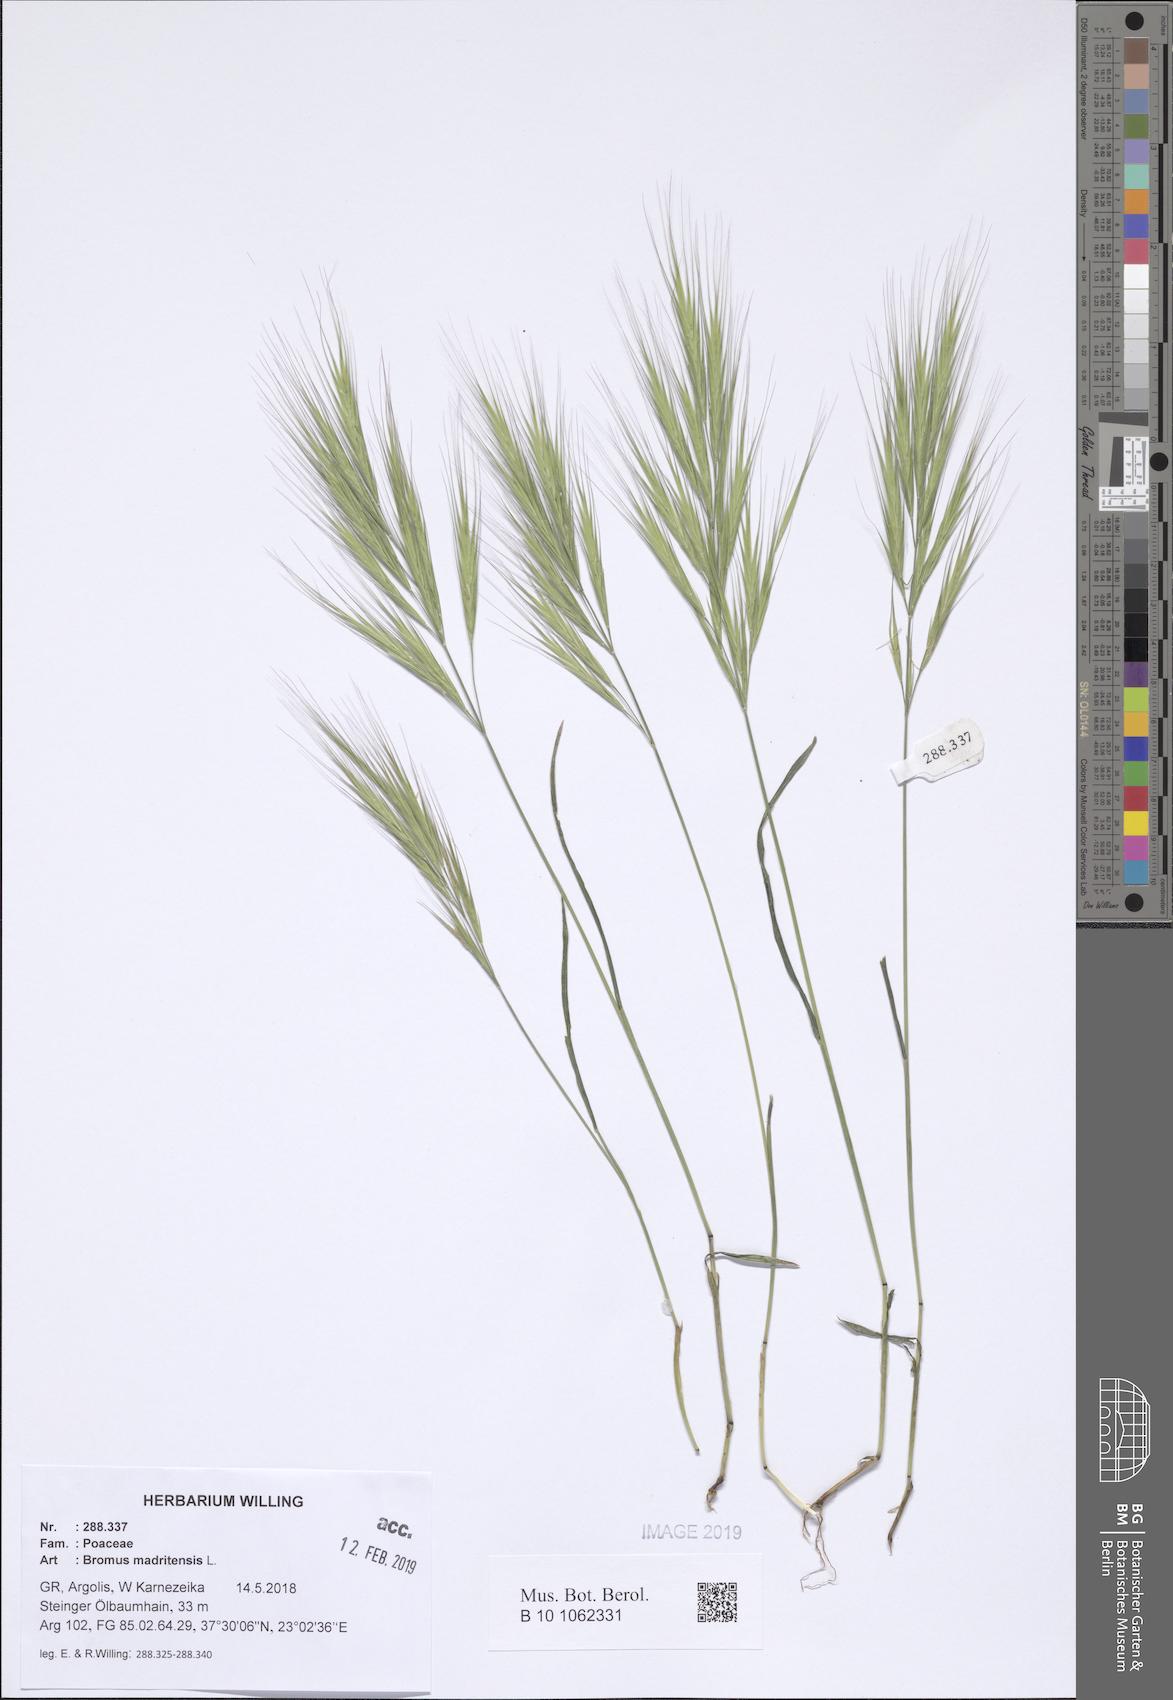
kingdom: Plantae
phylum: Tracheophyta
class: Liliopsida
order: Poales
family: Poaceae
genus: Bromus
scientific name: Bromus madritensis
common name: Compact brome
